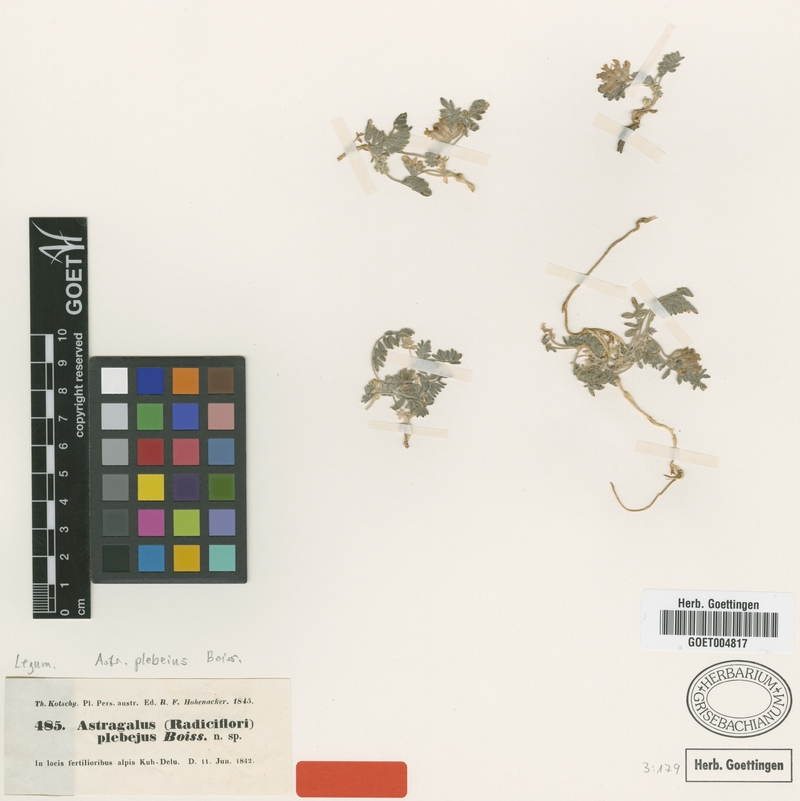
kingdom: Plantae
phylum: Tracheophyta
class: Magnoliopsida
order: Fabales
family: Fabaceae
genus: Astragalus
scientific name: Astragalus plebeius
